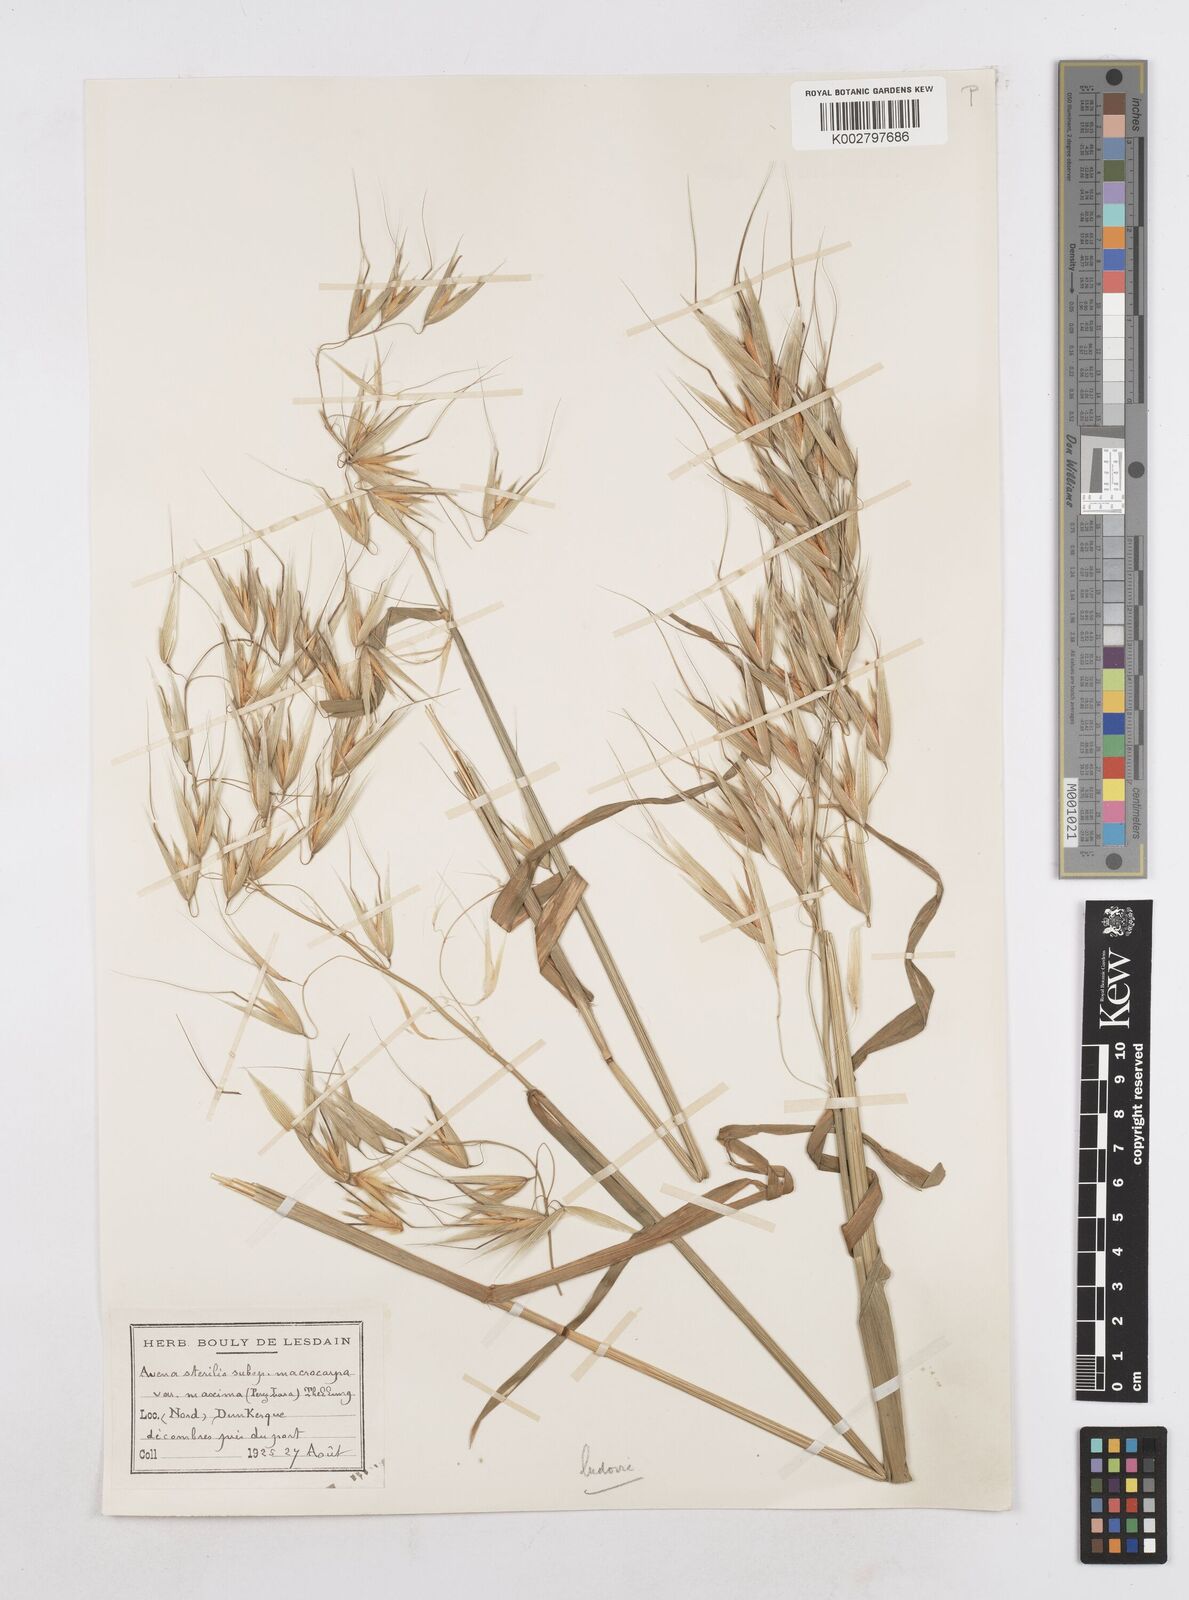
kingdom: Plantae
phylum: Tracheophyta
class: Liliopsida
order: Poales
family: Poaceae
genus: Avena
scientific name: Avena sterilis
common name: Animated oat
